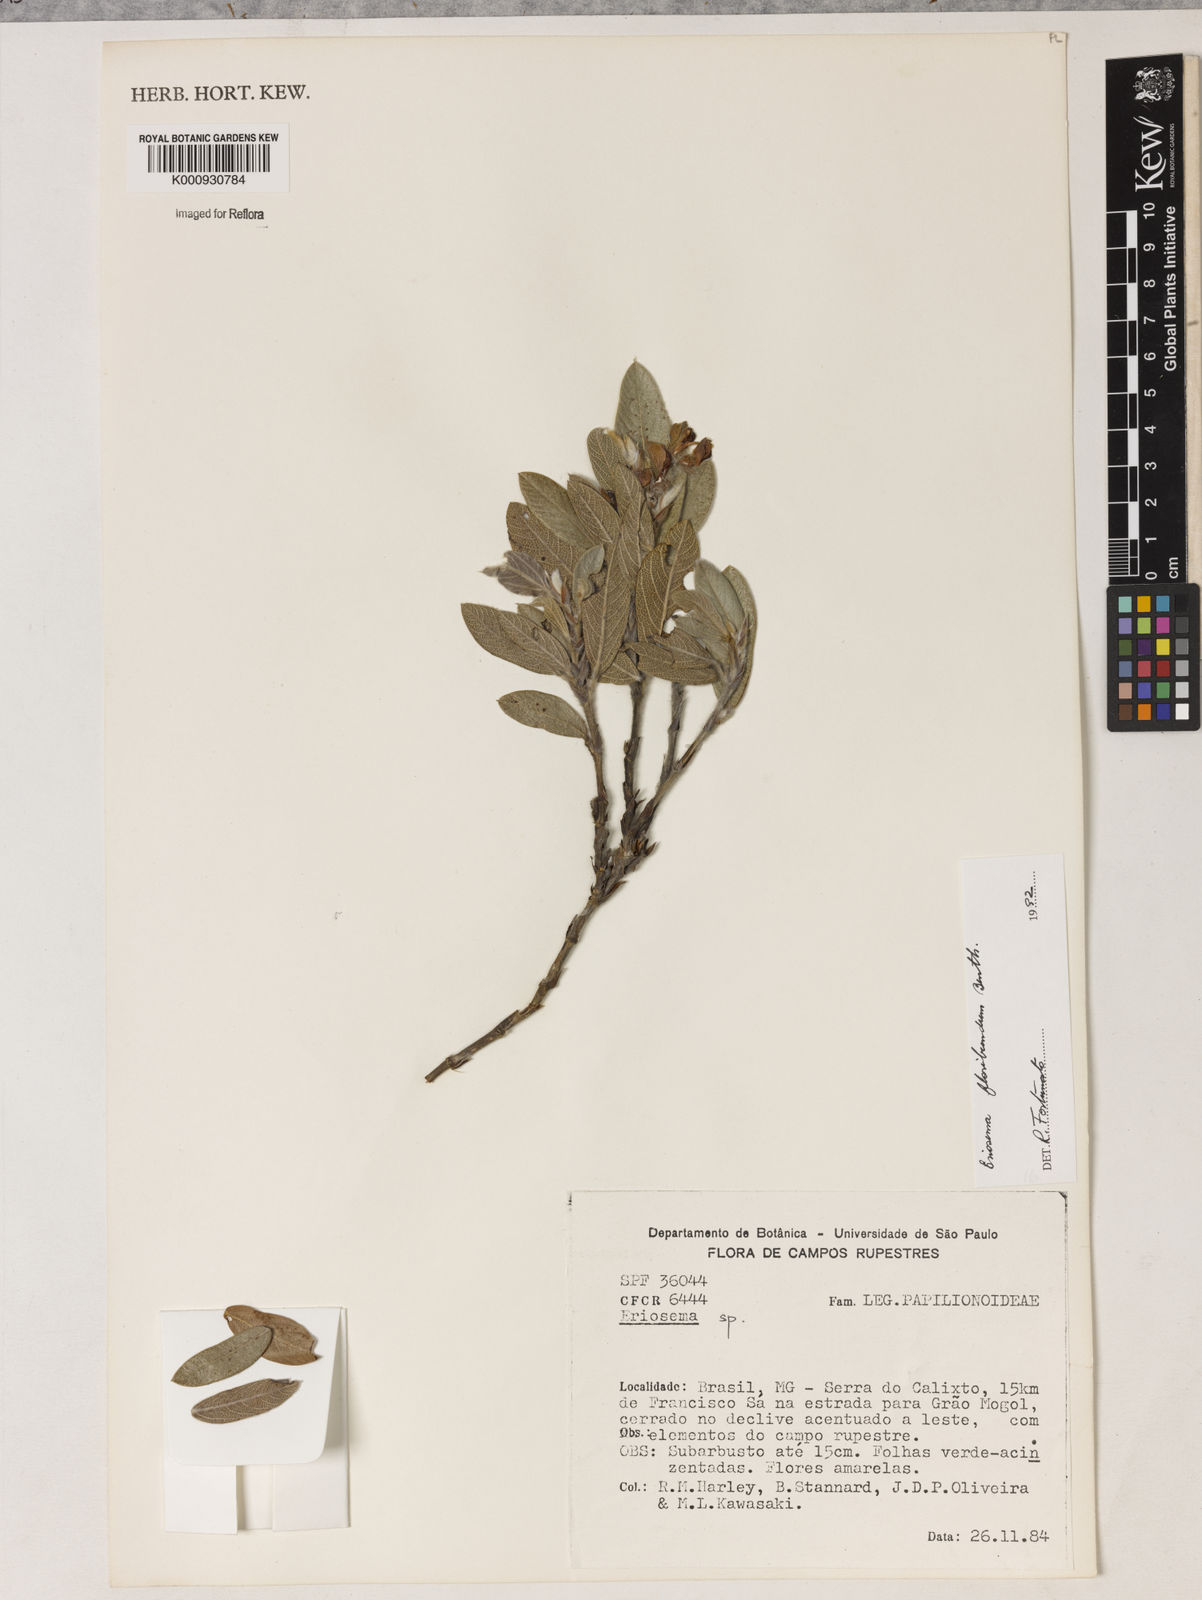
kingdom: Plantae
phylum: Tracheophyta
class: Magnoliopsida
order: Fabales
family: Fabaceae
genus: Eriosema
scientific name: Eriosema floribundum
